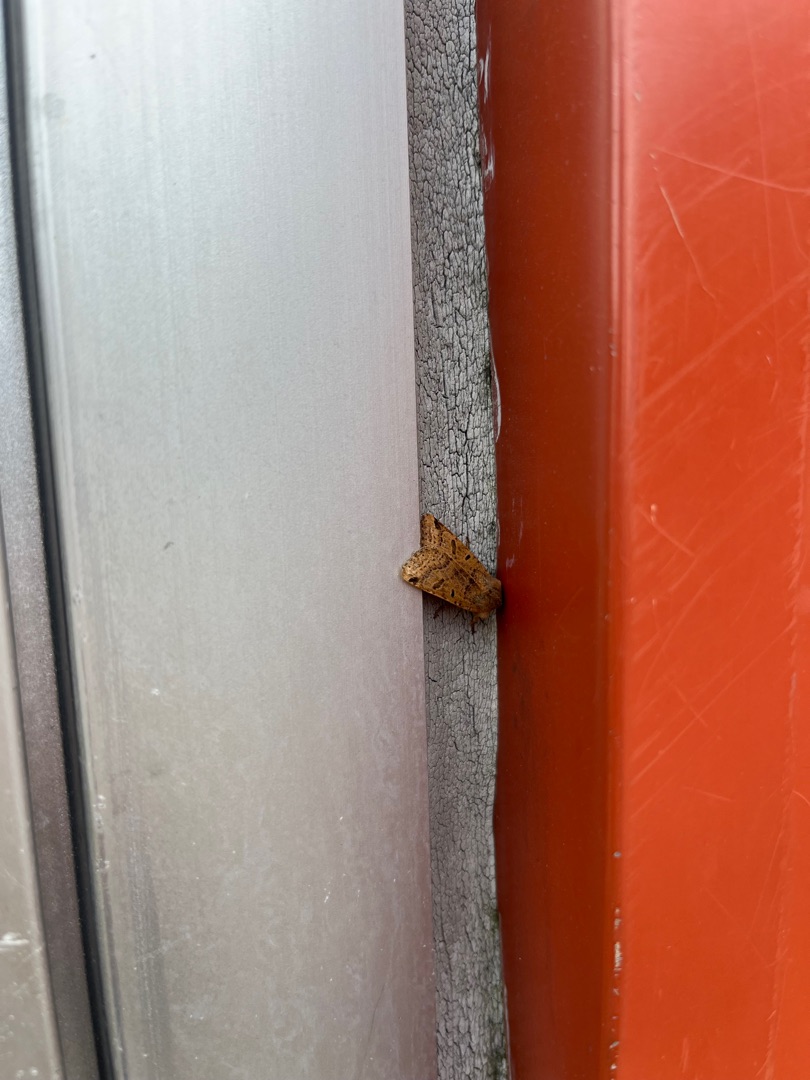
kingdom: Animalia
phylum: Arthropoda
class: Insecta
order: Lepidoptera
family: Noctuidae
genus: Agrochola
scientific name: Agrochola lychnidis
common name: Foranderlig jordfarveugle
